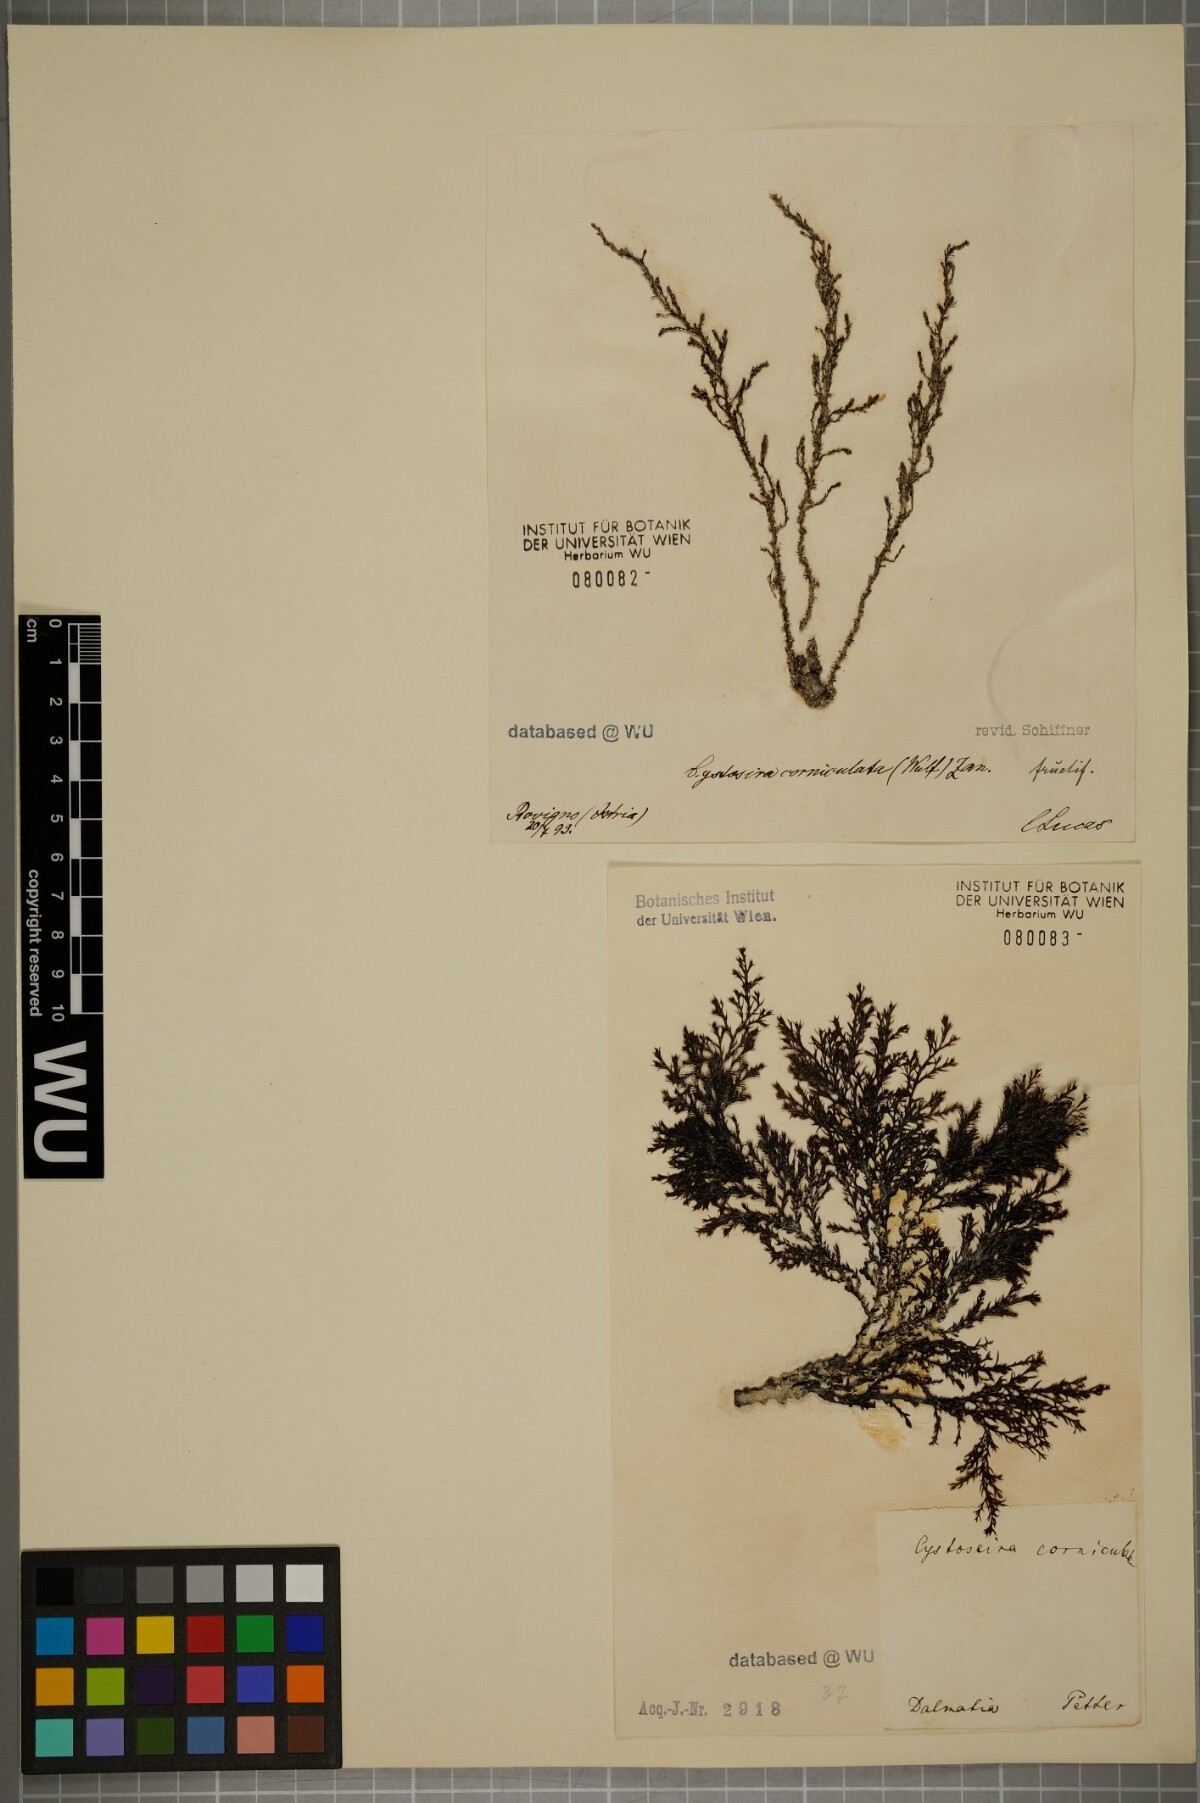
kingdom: Chromista
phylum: Ochrophyta
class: Phaeophyceae
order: Fucales
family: Sargassaceae
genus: Cystoseira
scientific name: Cystoseira corniculata
